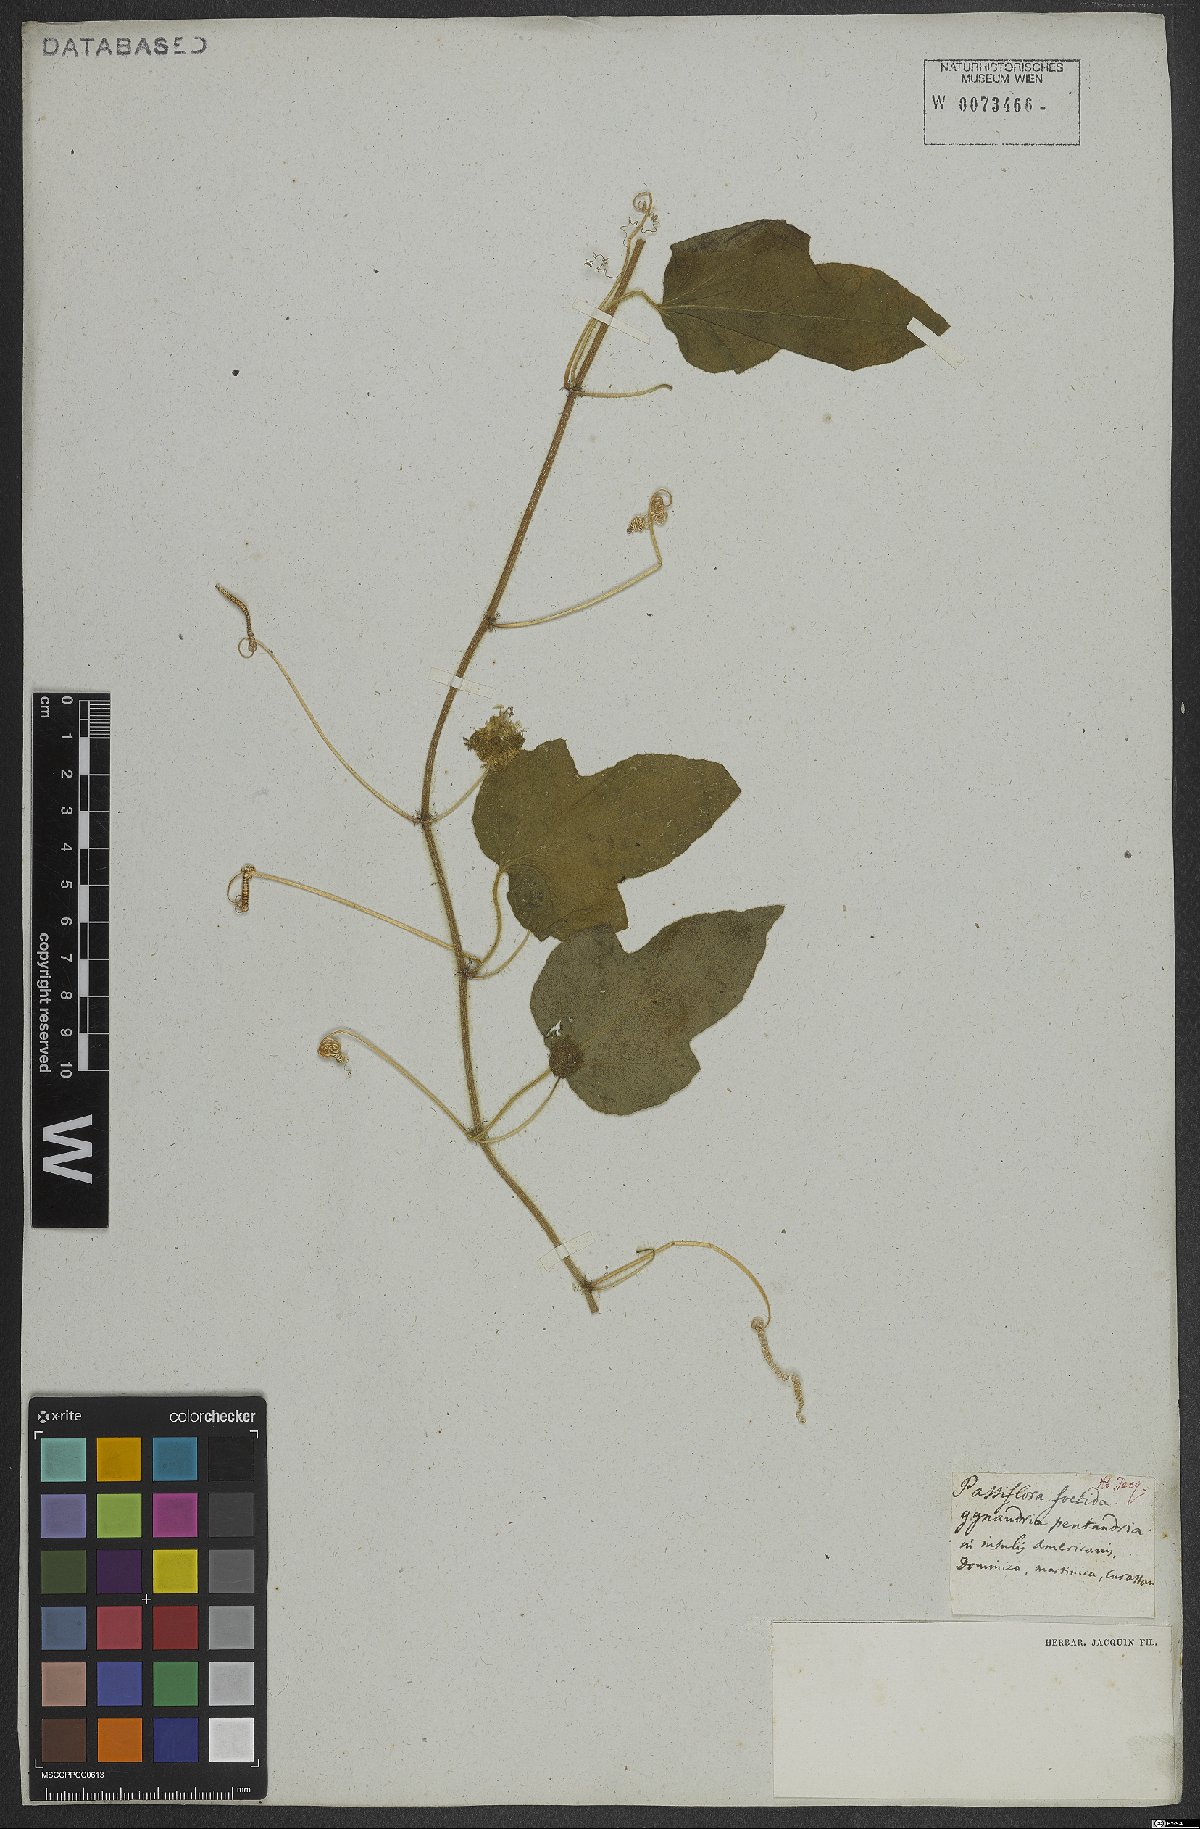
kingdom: Plantae
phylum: Tracheophyta
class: Magnoliopsida
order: Malpighiales
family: Passifloraceae
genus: Passiflora
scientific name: Passiflora foetida
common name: Fetid passionflower
